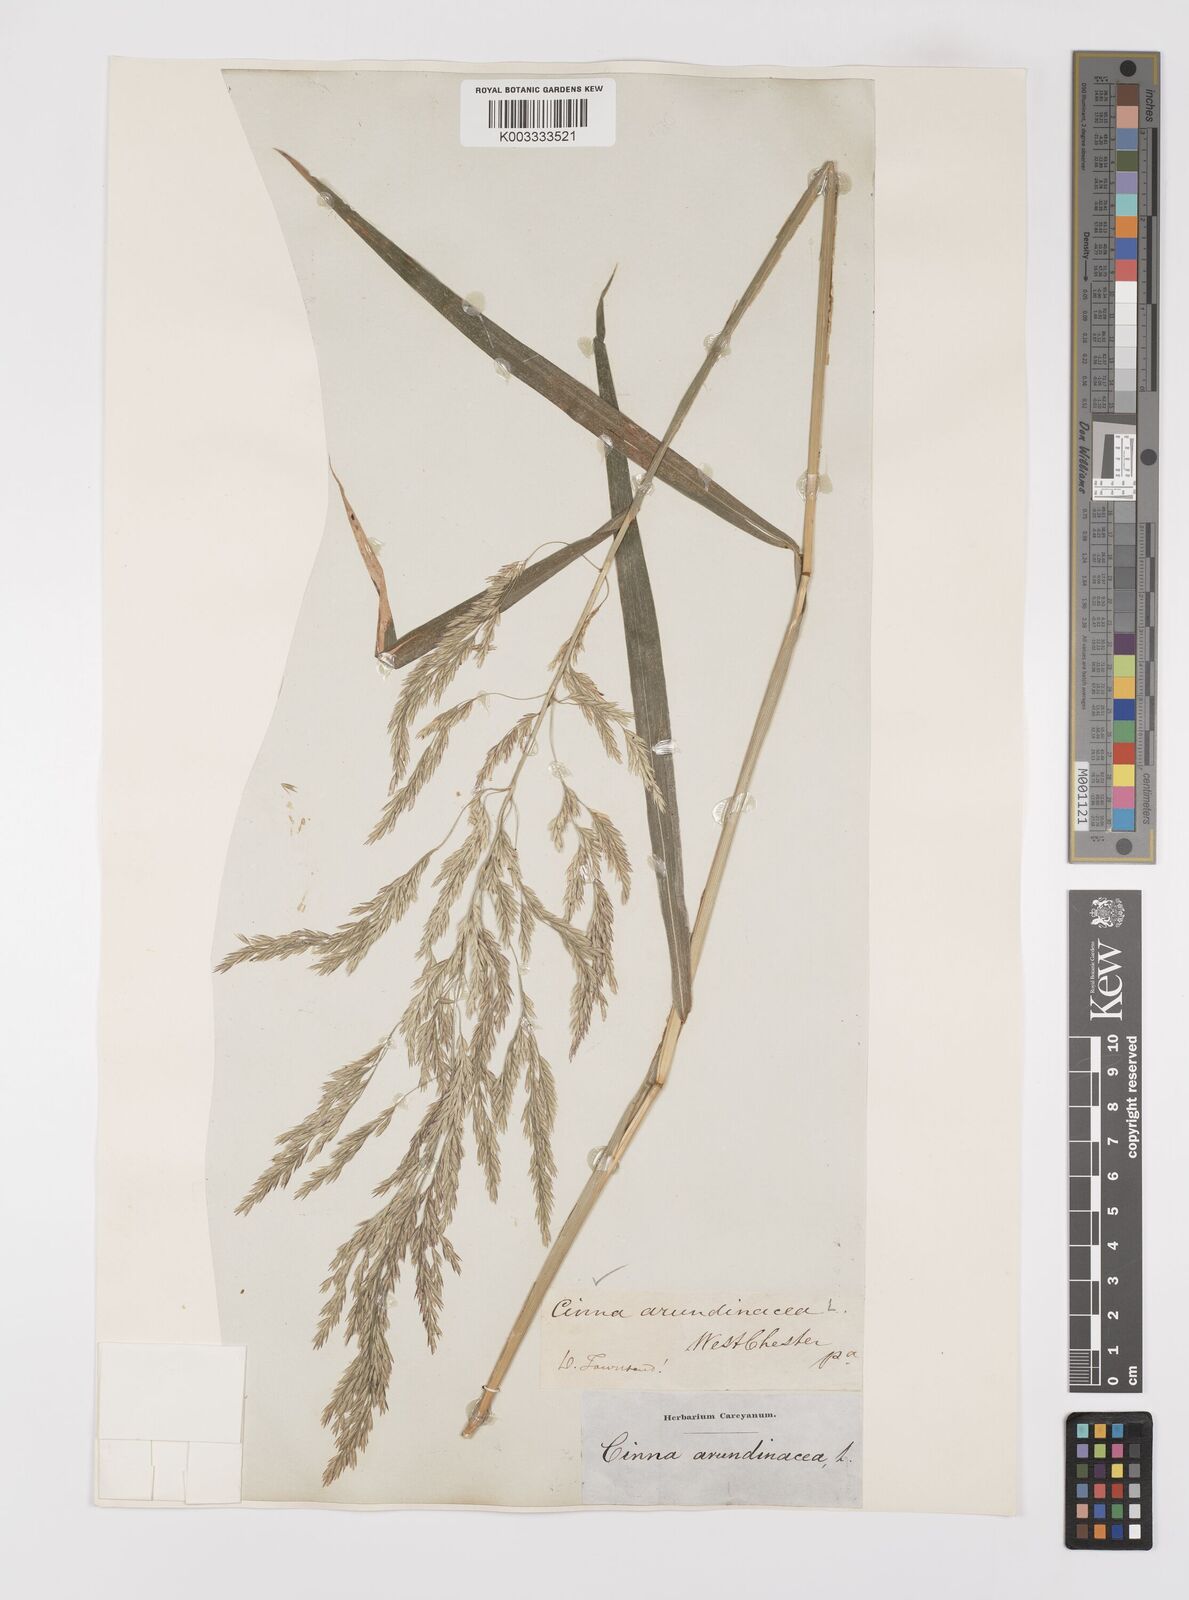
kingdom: Plantae
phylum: Tracheophyta
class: Liliopsida
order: Poales
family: Poaceae
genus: Cinna
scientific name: Cinna
